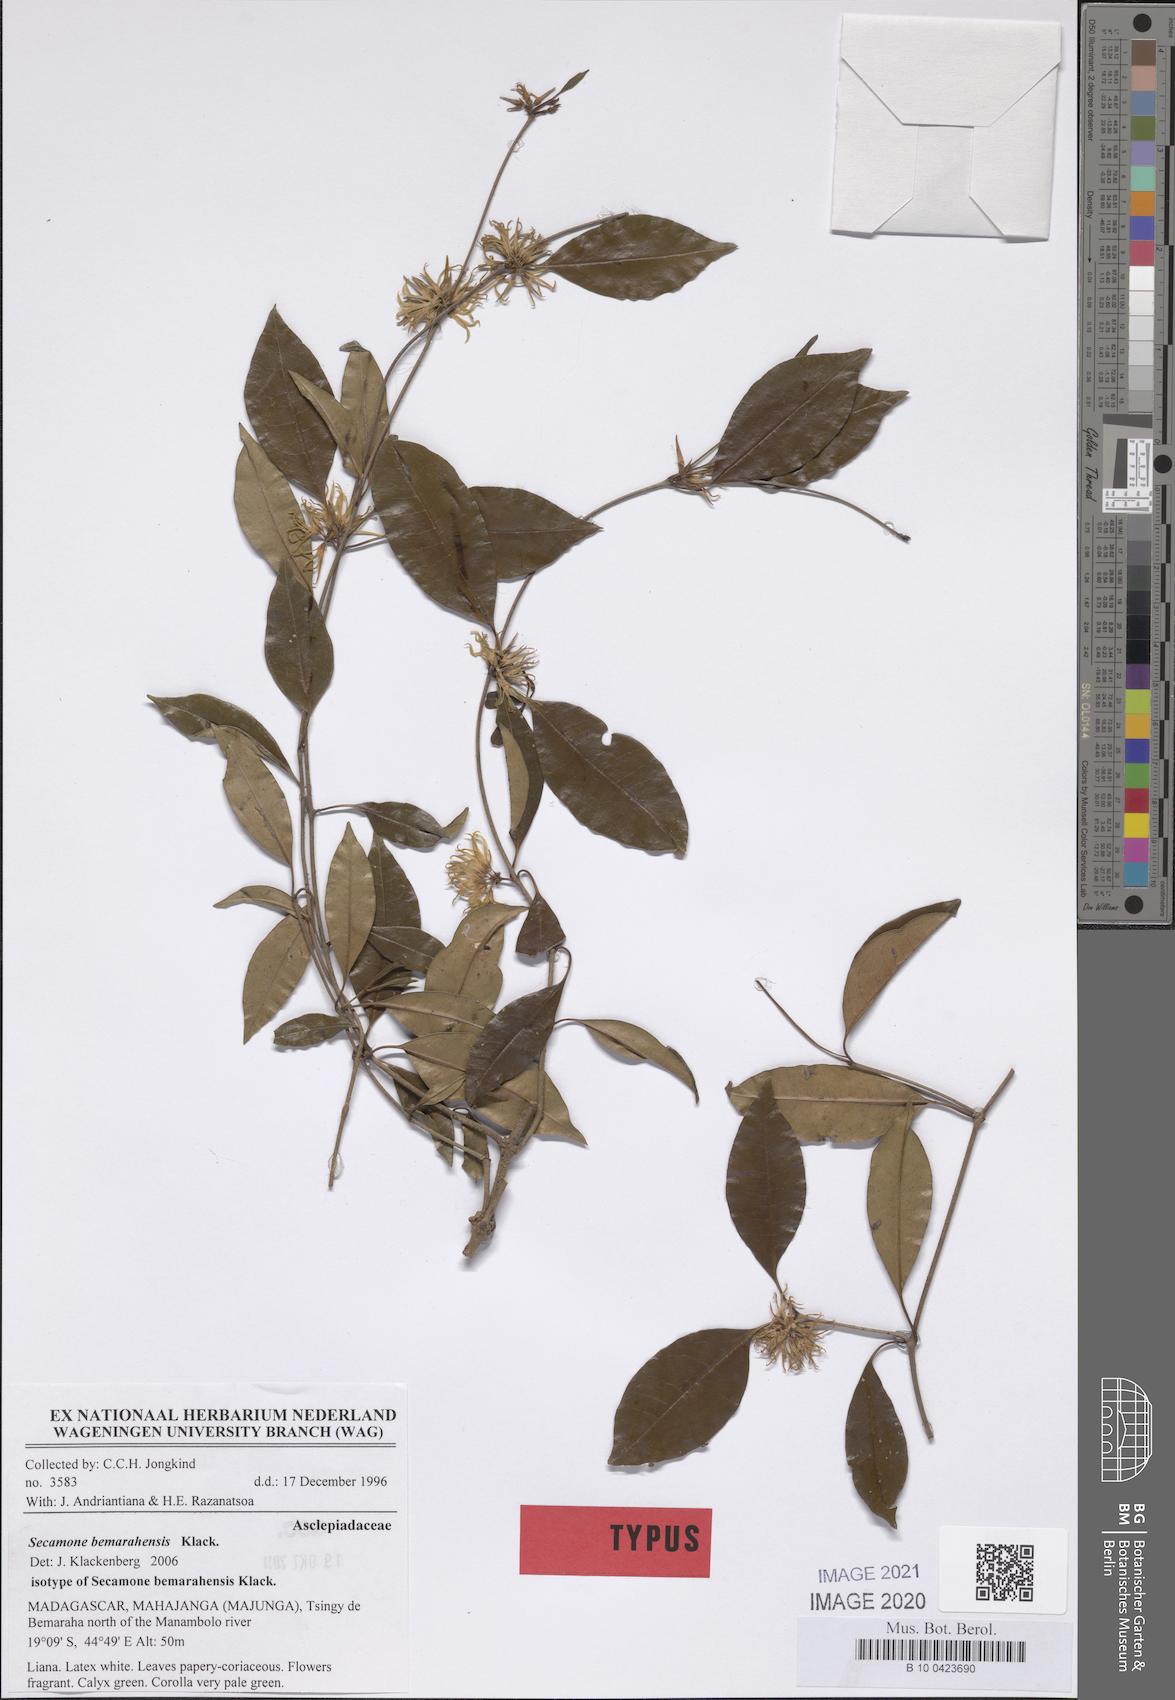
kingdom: Plantae
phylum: Tracheophyta
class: Magnoliopsida
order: Gentianales
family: Apocynaceae
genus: Secamone
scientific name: Secamone bemarahensis
